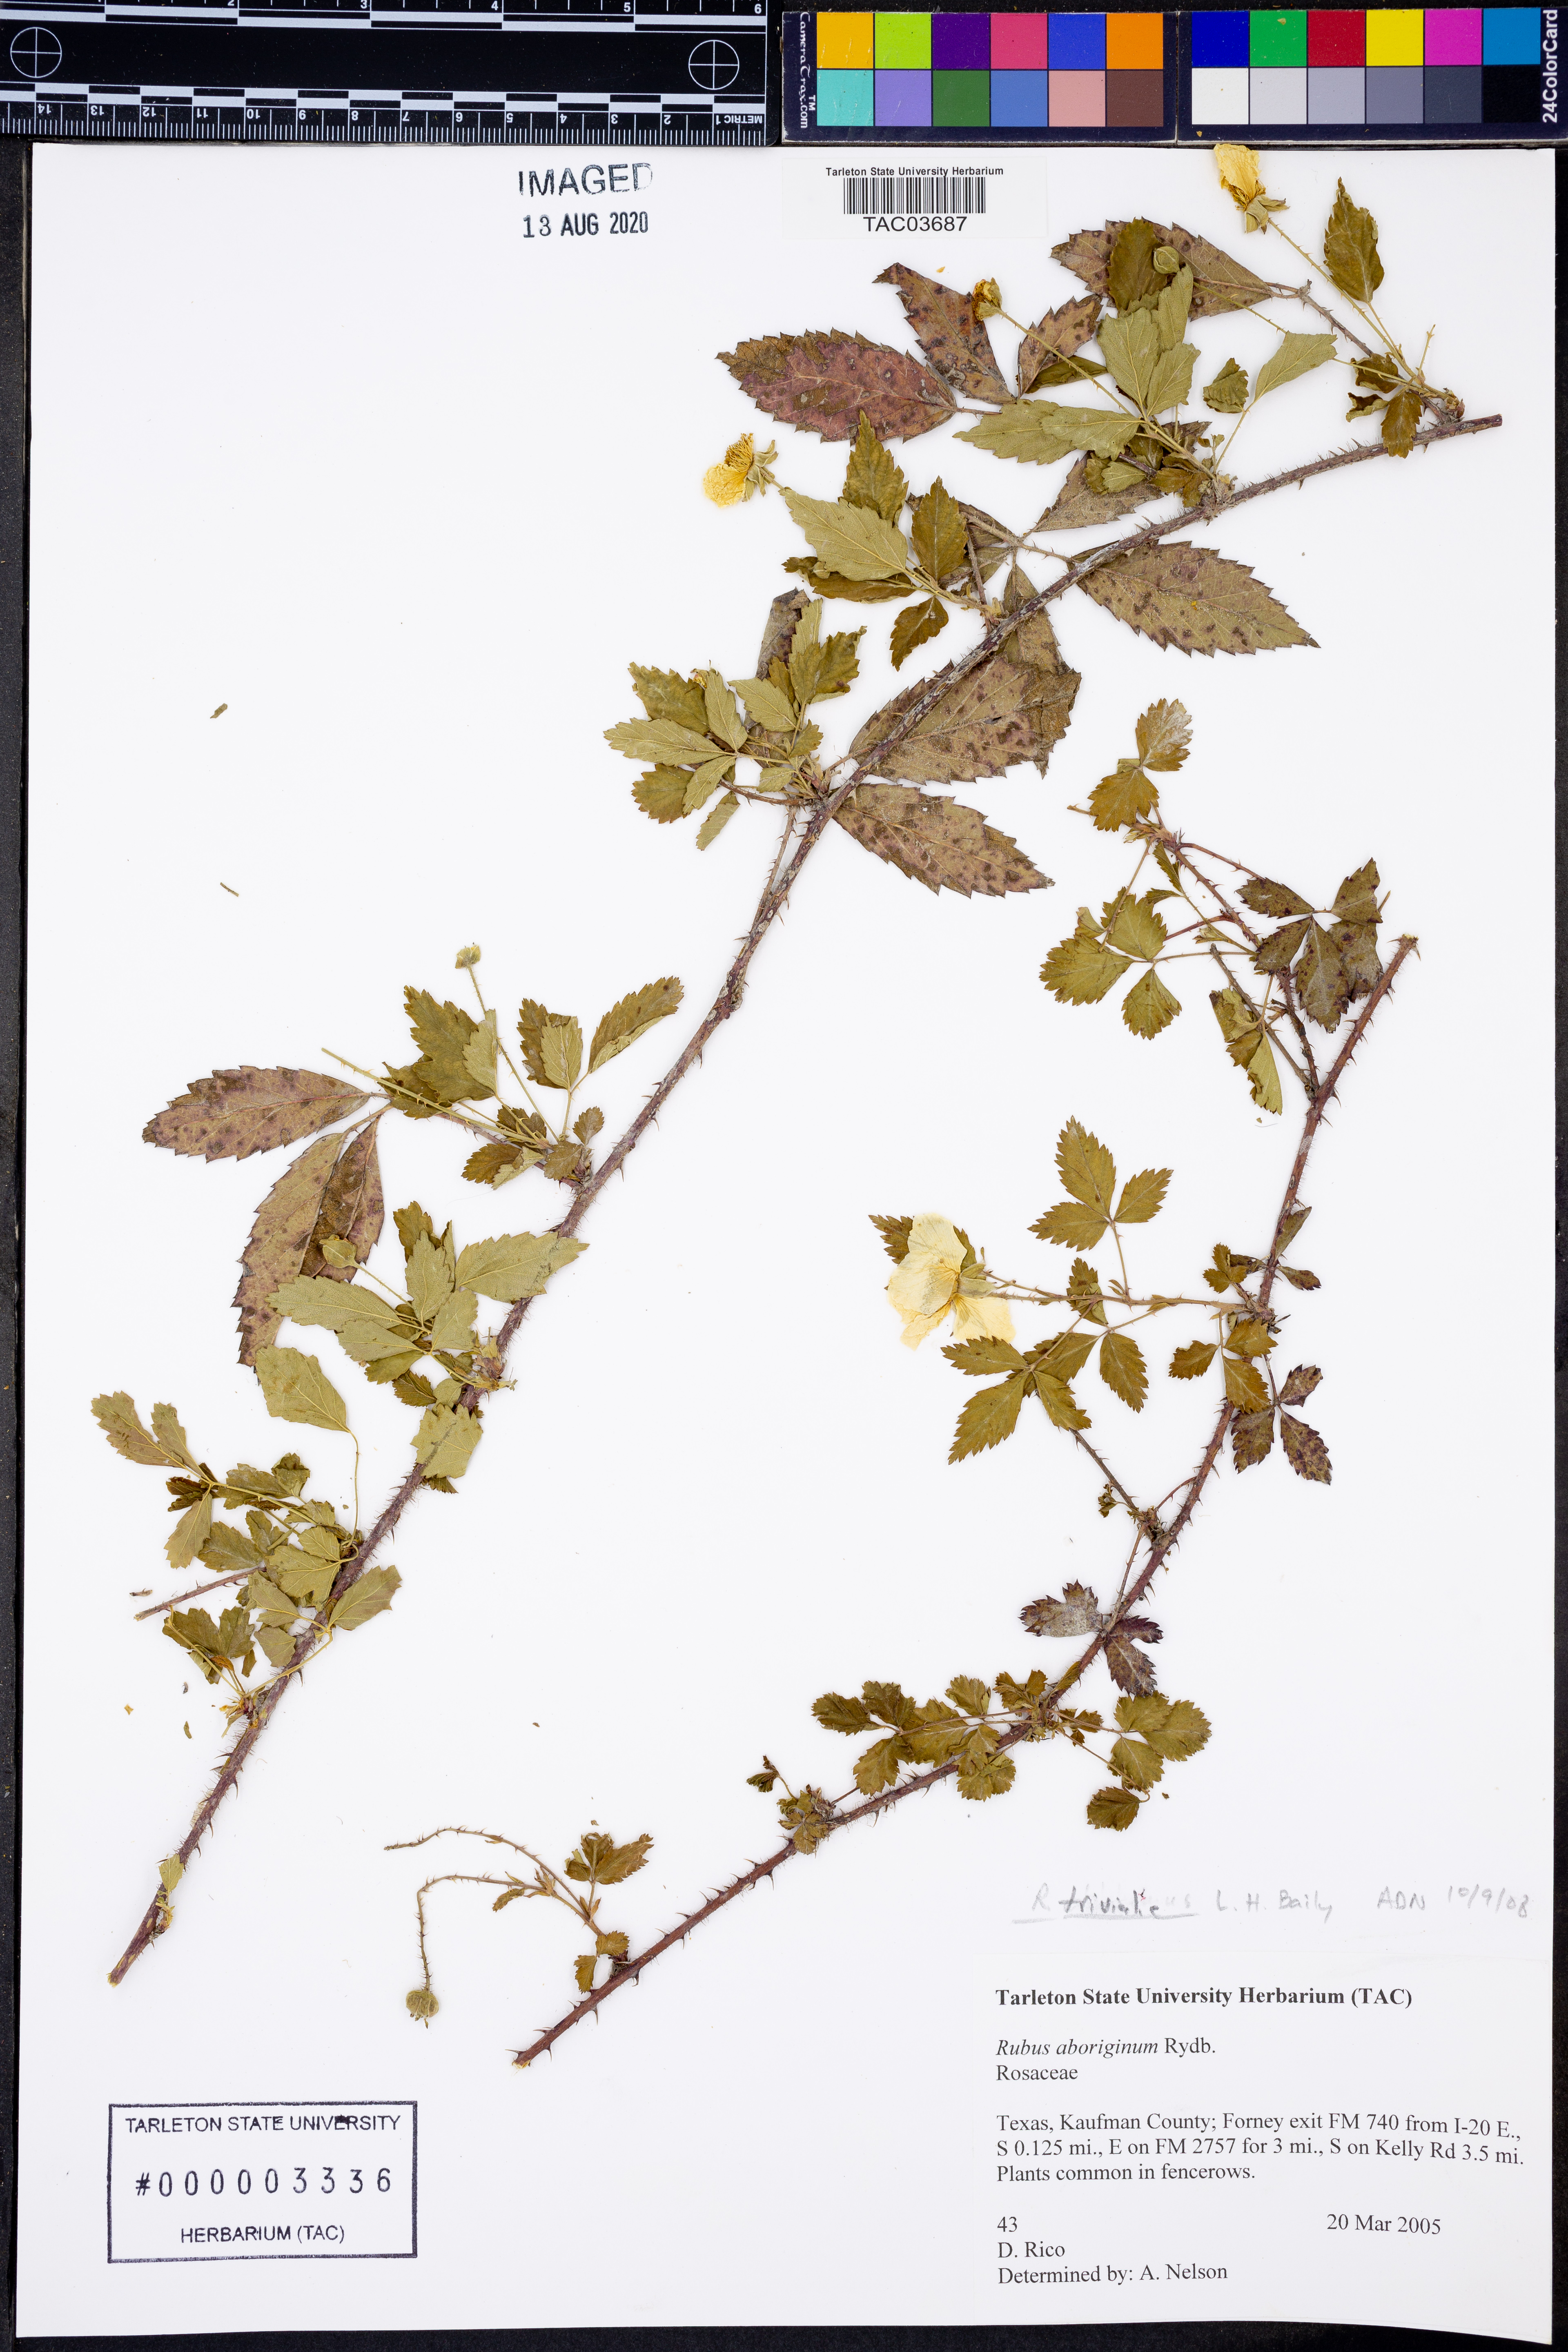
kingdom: Plantae
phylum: Tracheophyta
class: Magnoliopsida
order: Rosales
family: Rosaceae
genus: Rubus
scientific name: Rubus trivialis
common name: Southern dewberry
